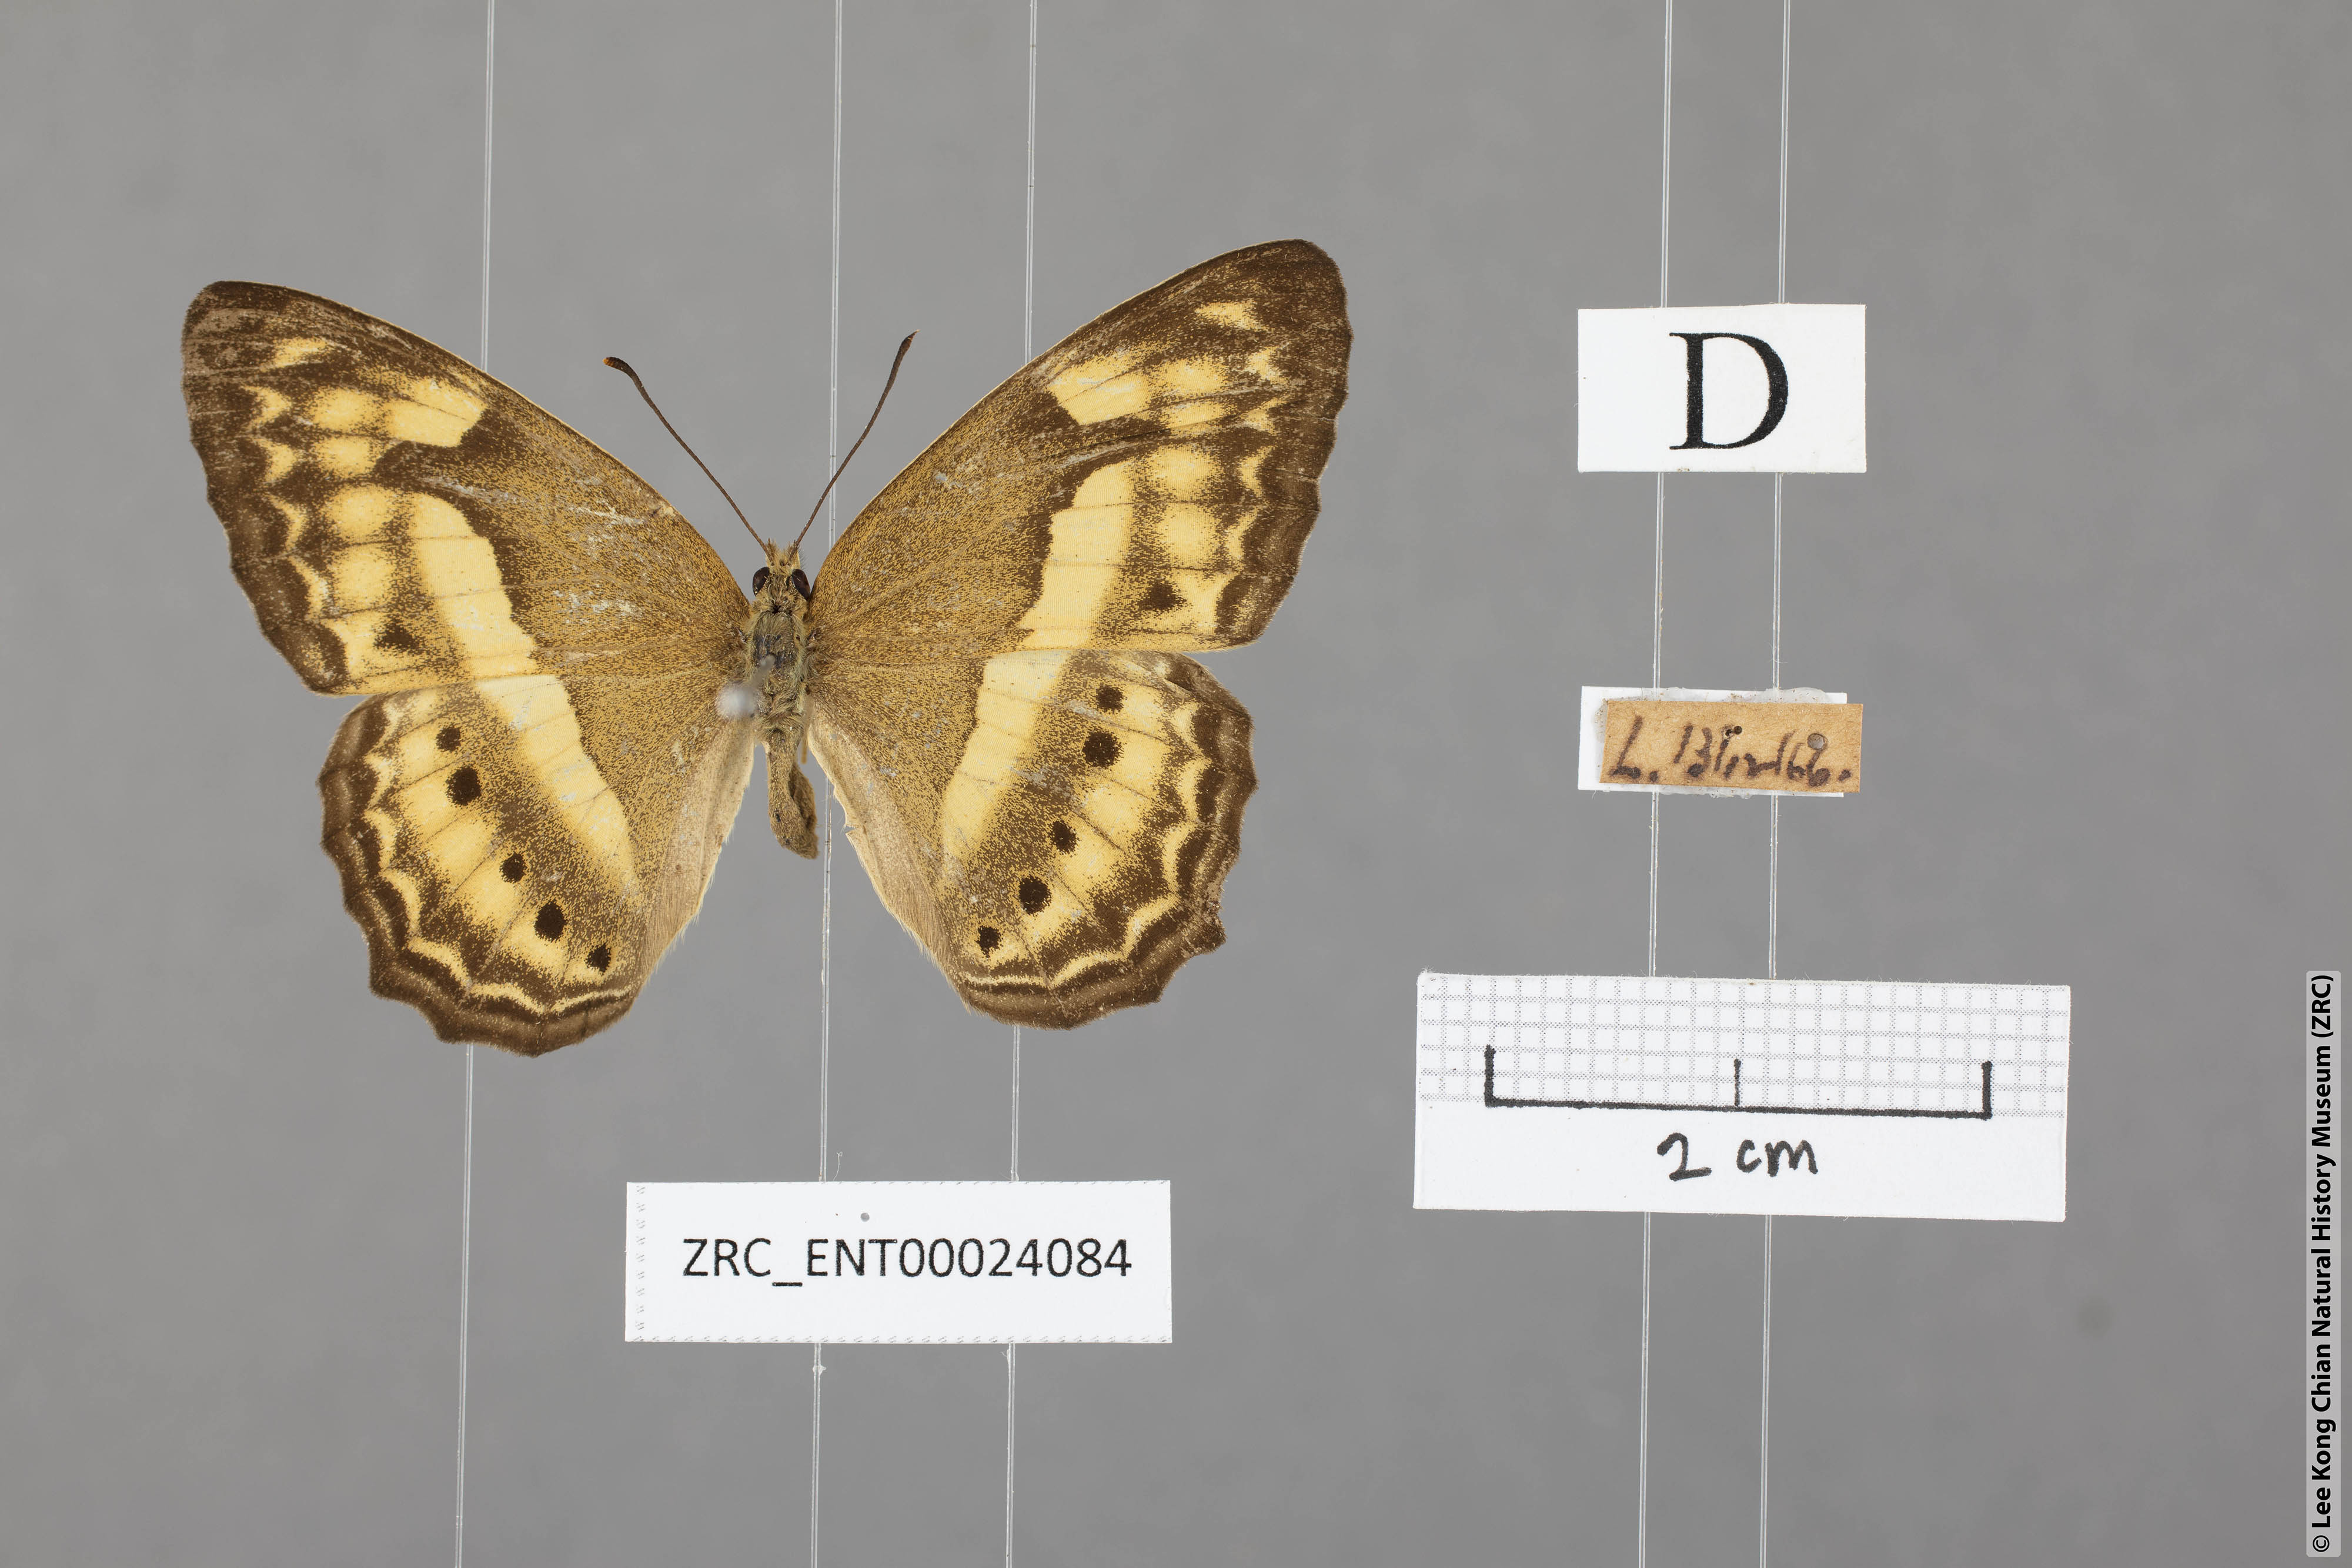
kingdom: Animalia
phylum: Arthropoda
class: Insecta
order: Lepidoptera
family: Nymphalidae
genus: Cirrochroa
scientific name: Cirrochroa fasciata
